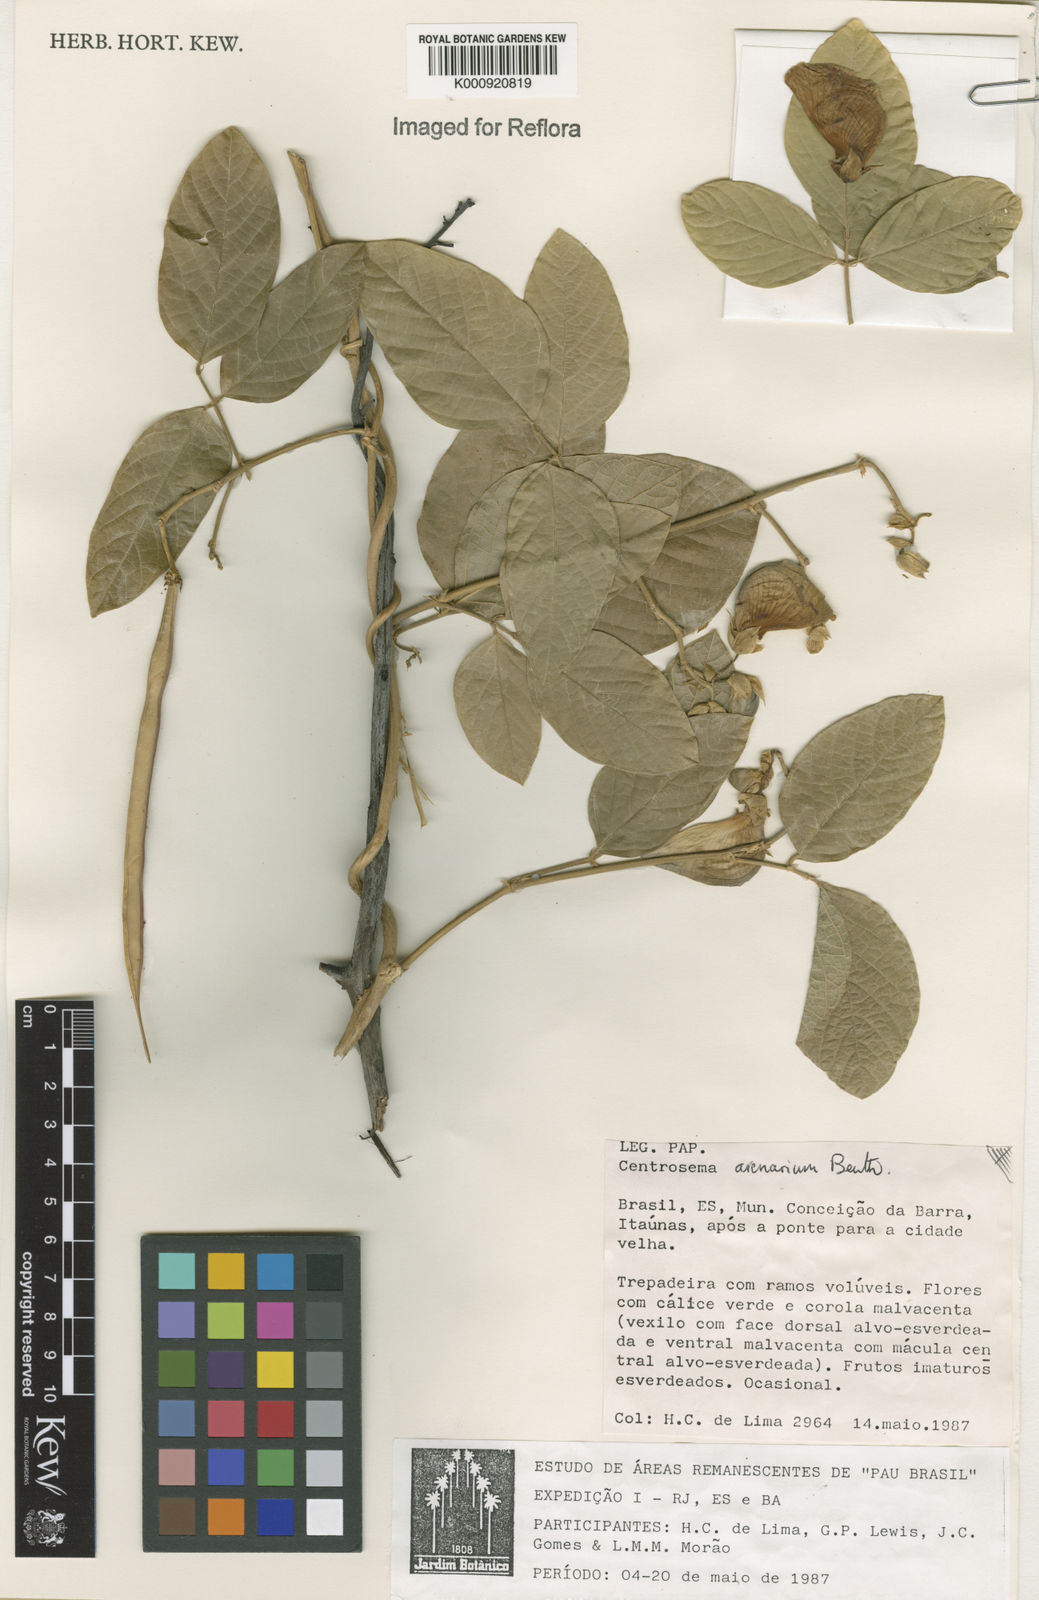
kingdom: Plantae
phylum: Tracheophyta
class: Magnoliopsida
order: Fabales
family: Fabaceae
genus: Centrosema
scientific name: Centrosema arenarium
